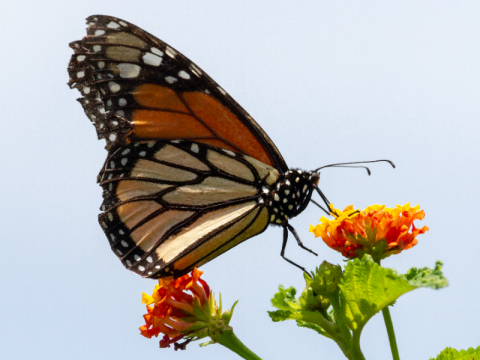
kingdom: Animalia
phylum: Arthropoda
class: Insecta
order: Lepidoptera
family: Nymphalidae
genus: Danaus
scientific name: Danaus plexippus
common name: Monarch
